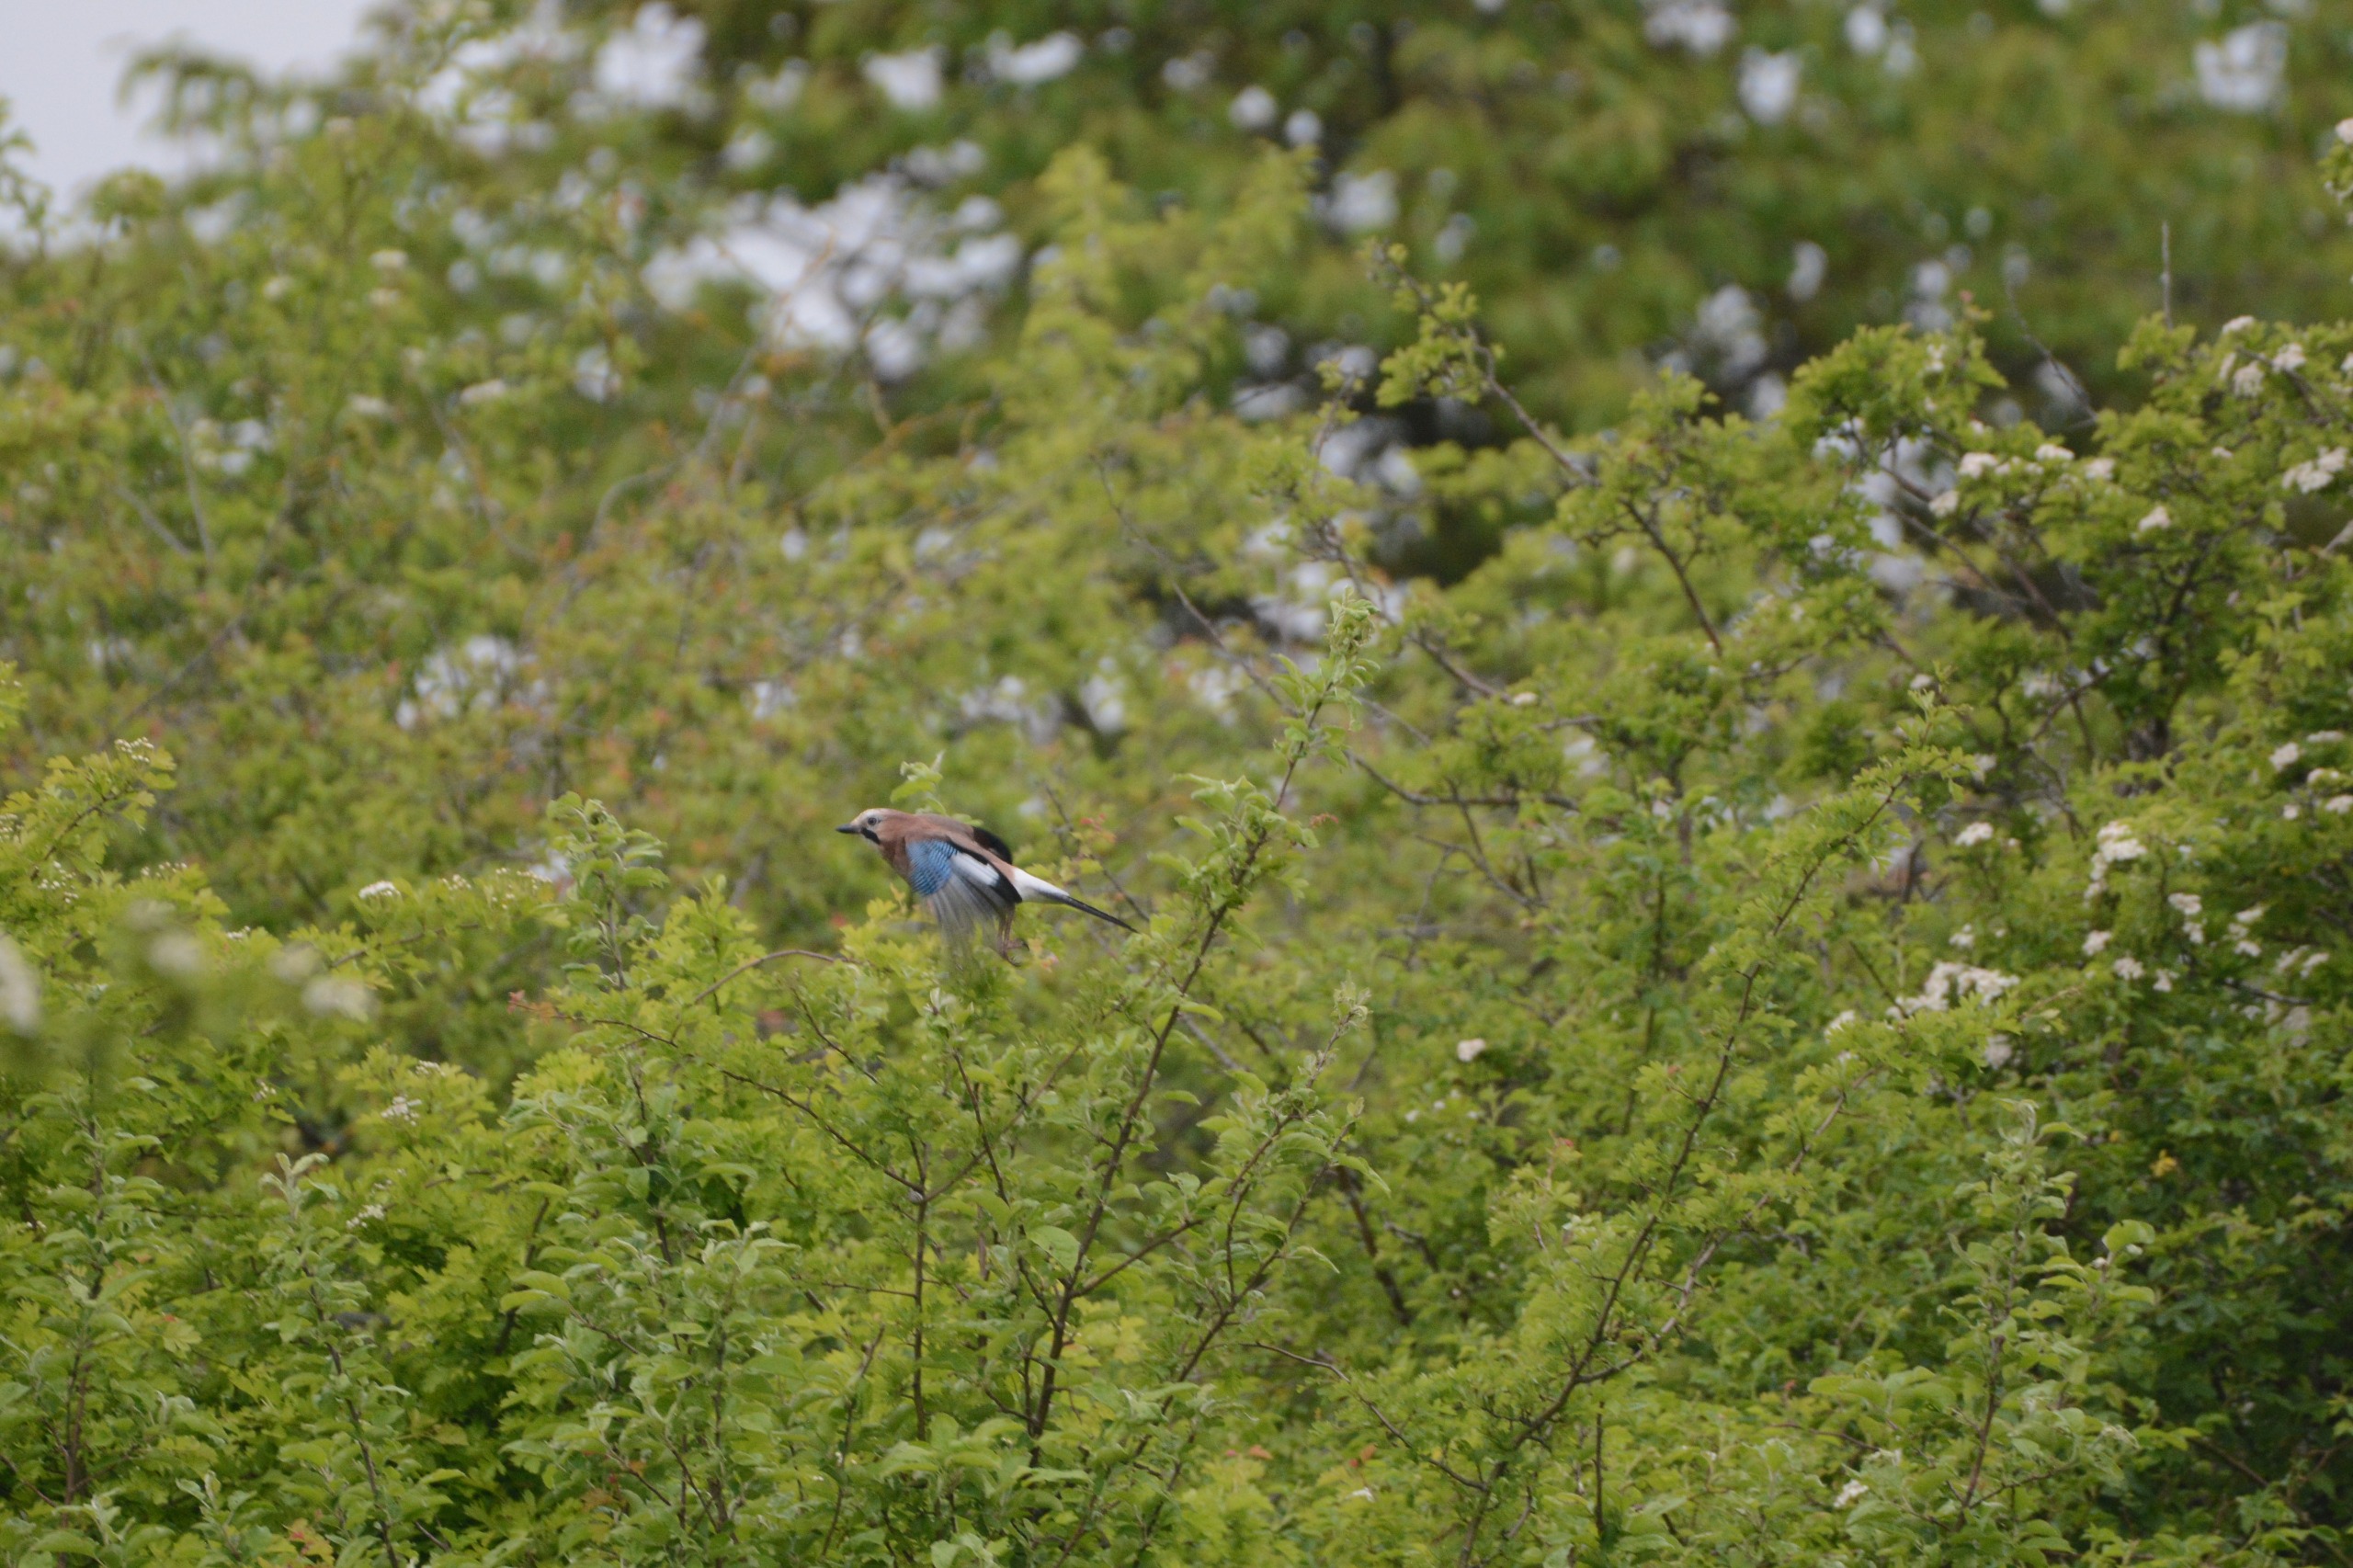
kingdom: Animalia
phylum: Chordata
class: Aves
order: Passeriformes
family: Corvidae
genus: Garrulus
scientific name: Garrulus glandarius
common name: Skovskade
